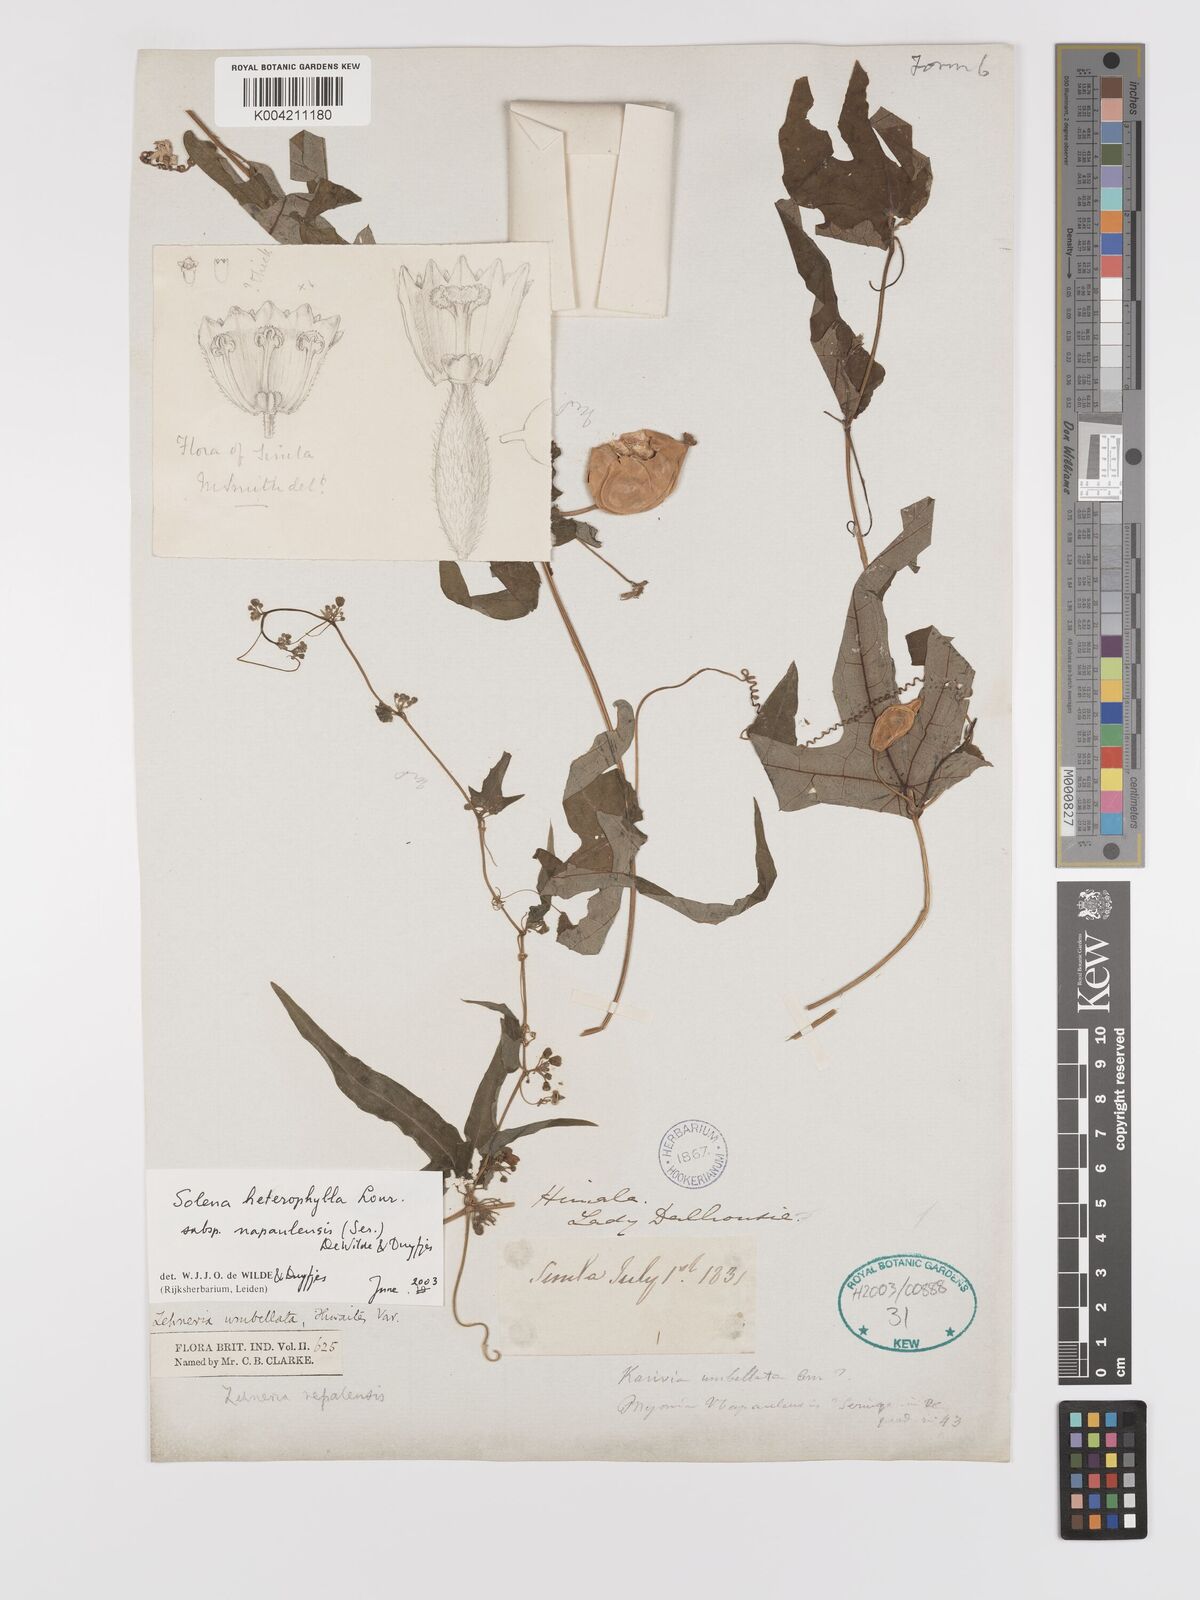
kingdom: Plantae
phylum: Tracheophyta
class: Magnoliopsida
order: Cucurbitales
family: Cucurbitaceae
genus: Solena
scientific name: Solena heterophylla
